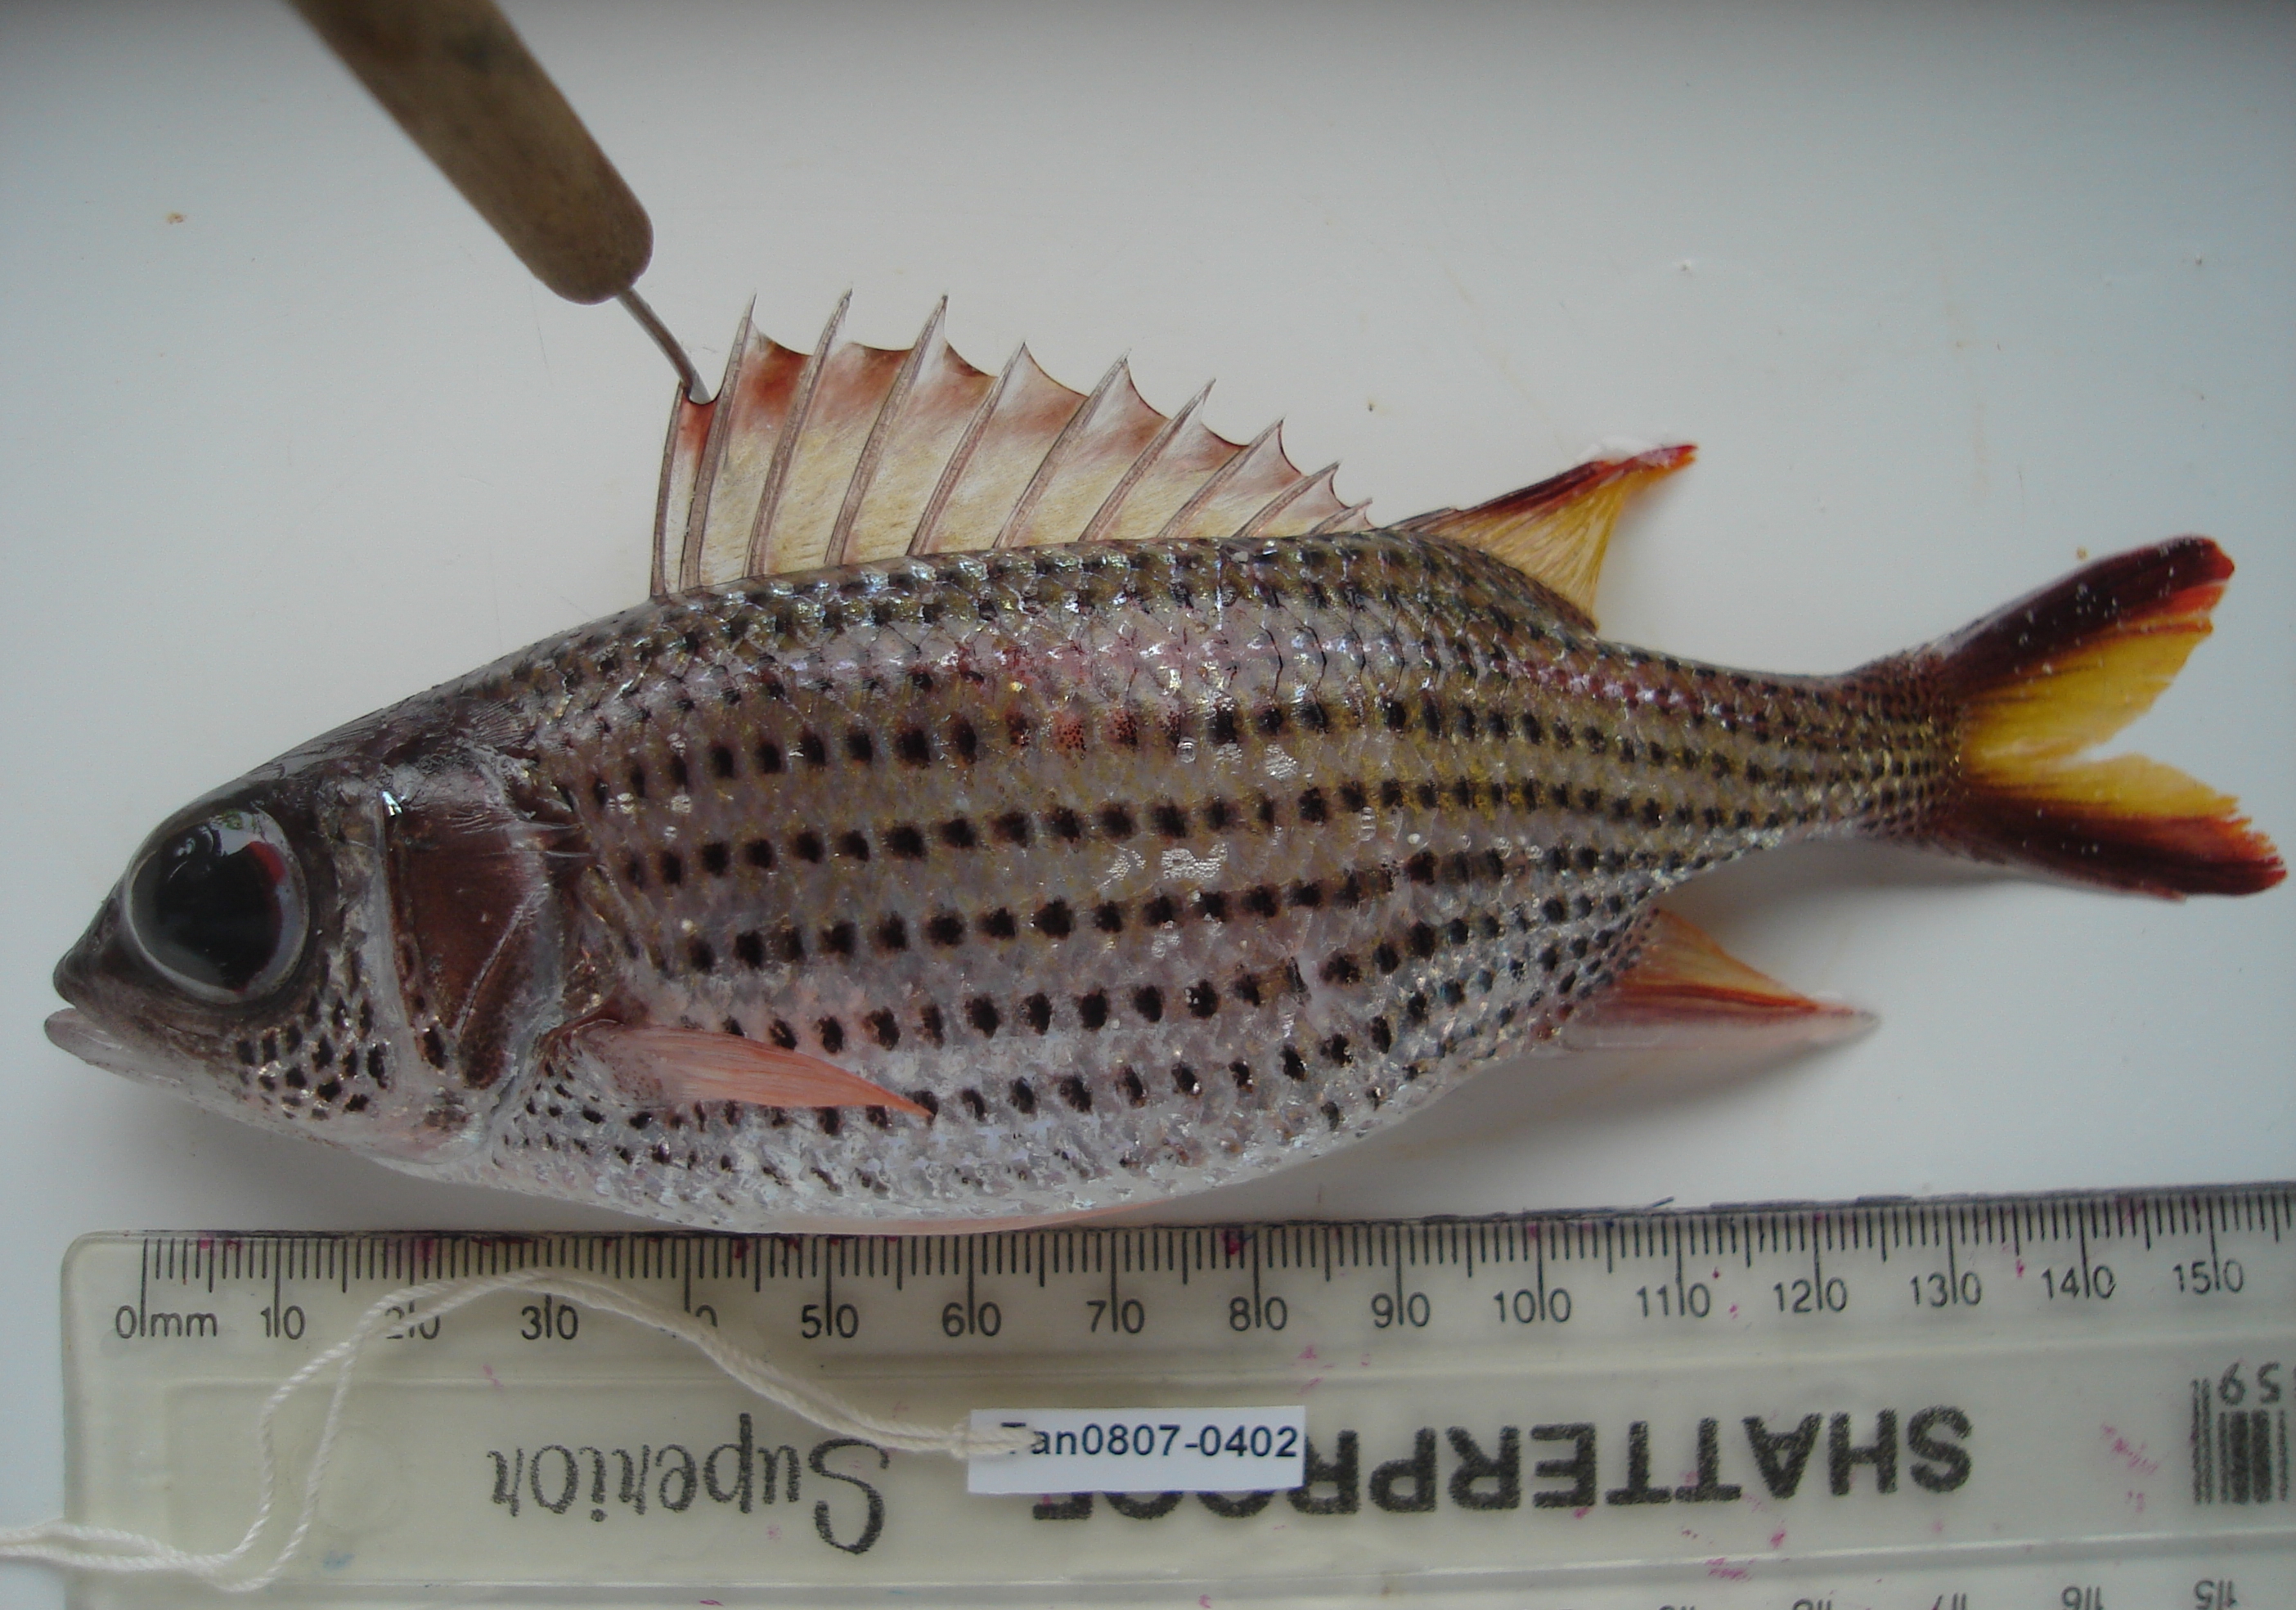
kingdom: Animalia
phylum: Chordata
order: Beryciformes
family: Holocentridae
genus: Neoniphon
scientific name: Neoniphon argenteus
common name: Clearfin squirrelfish
